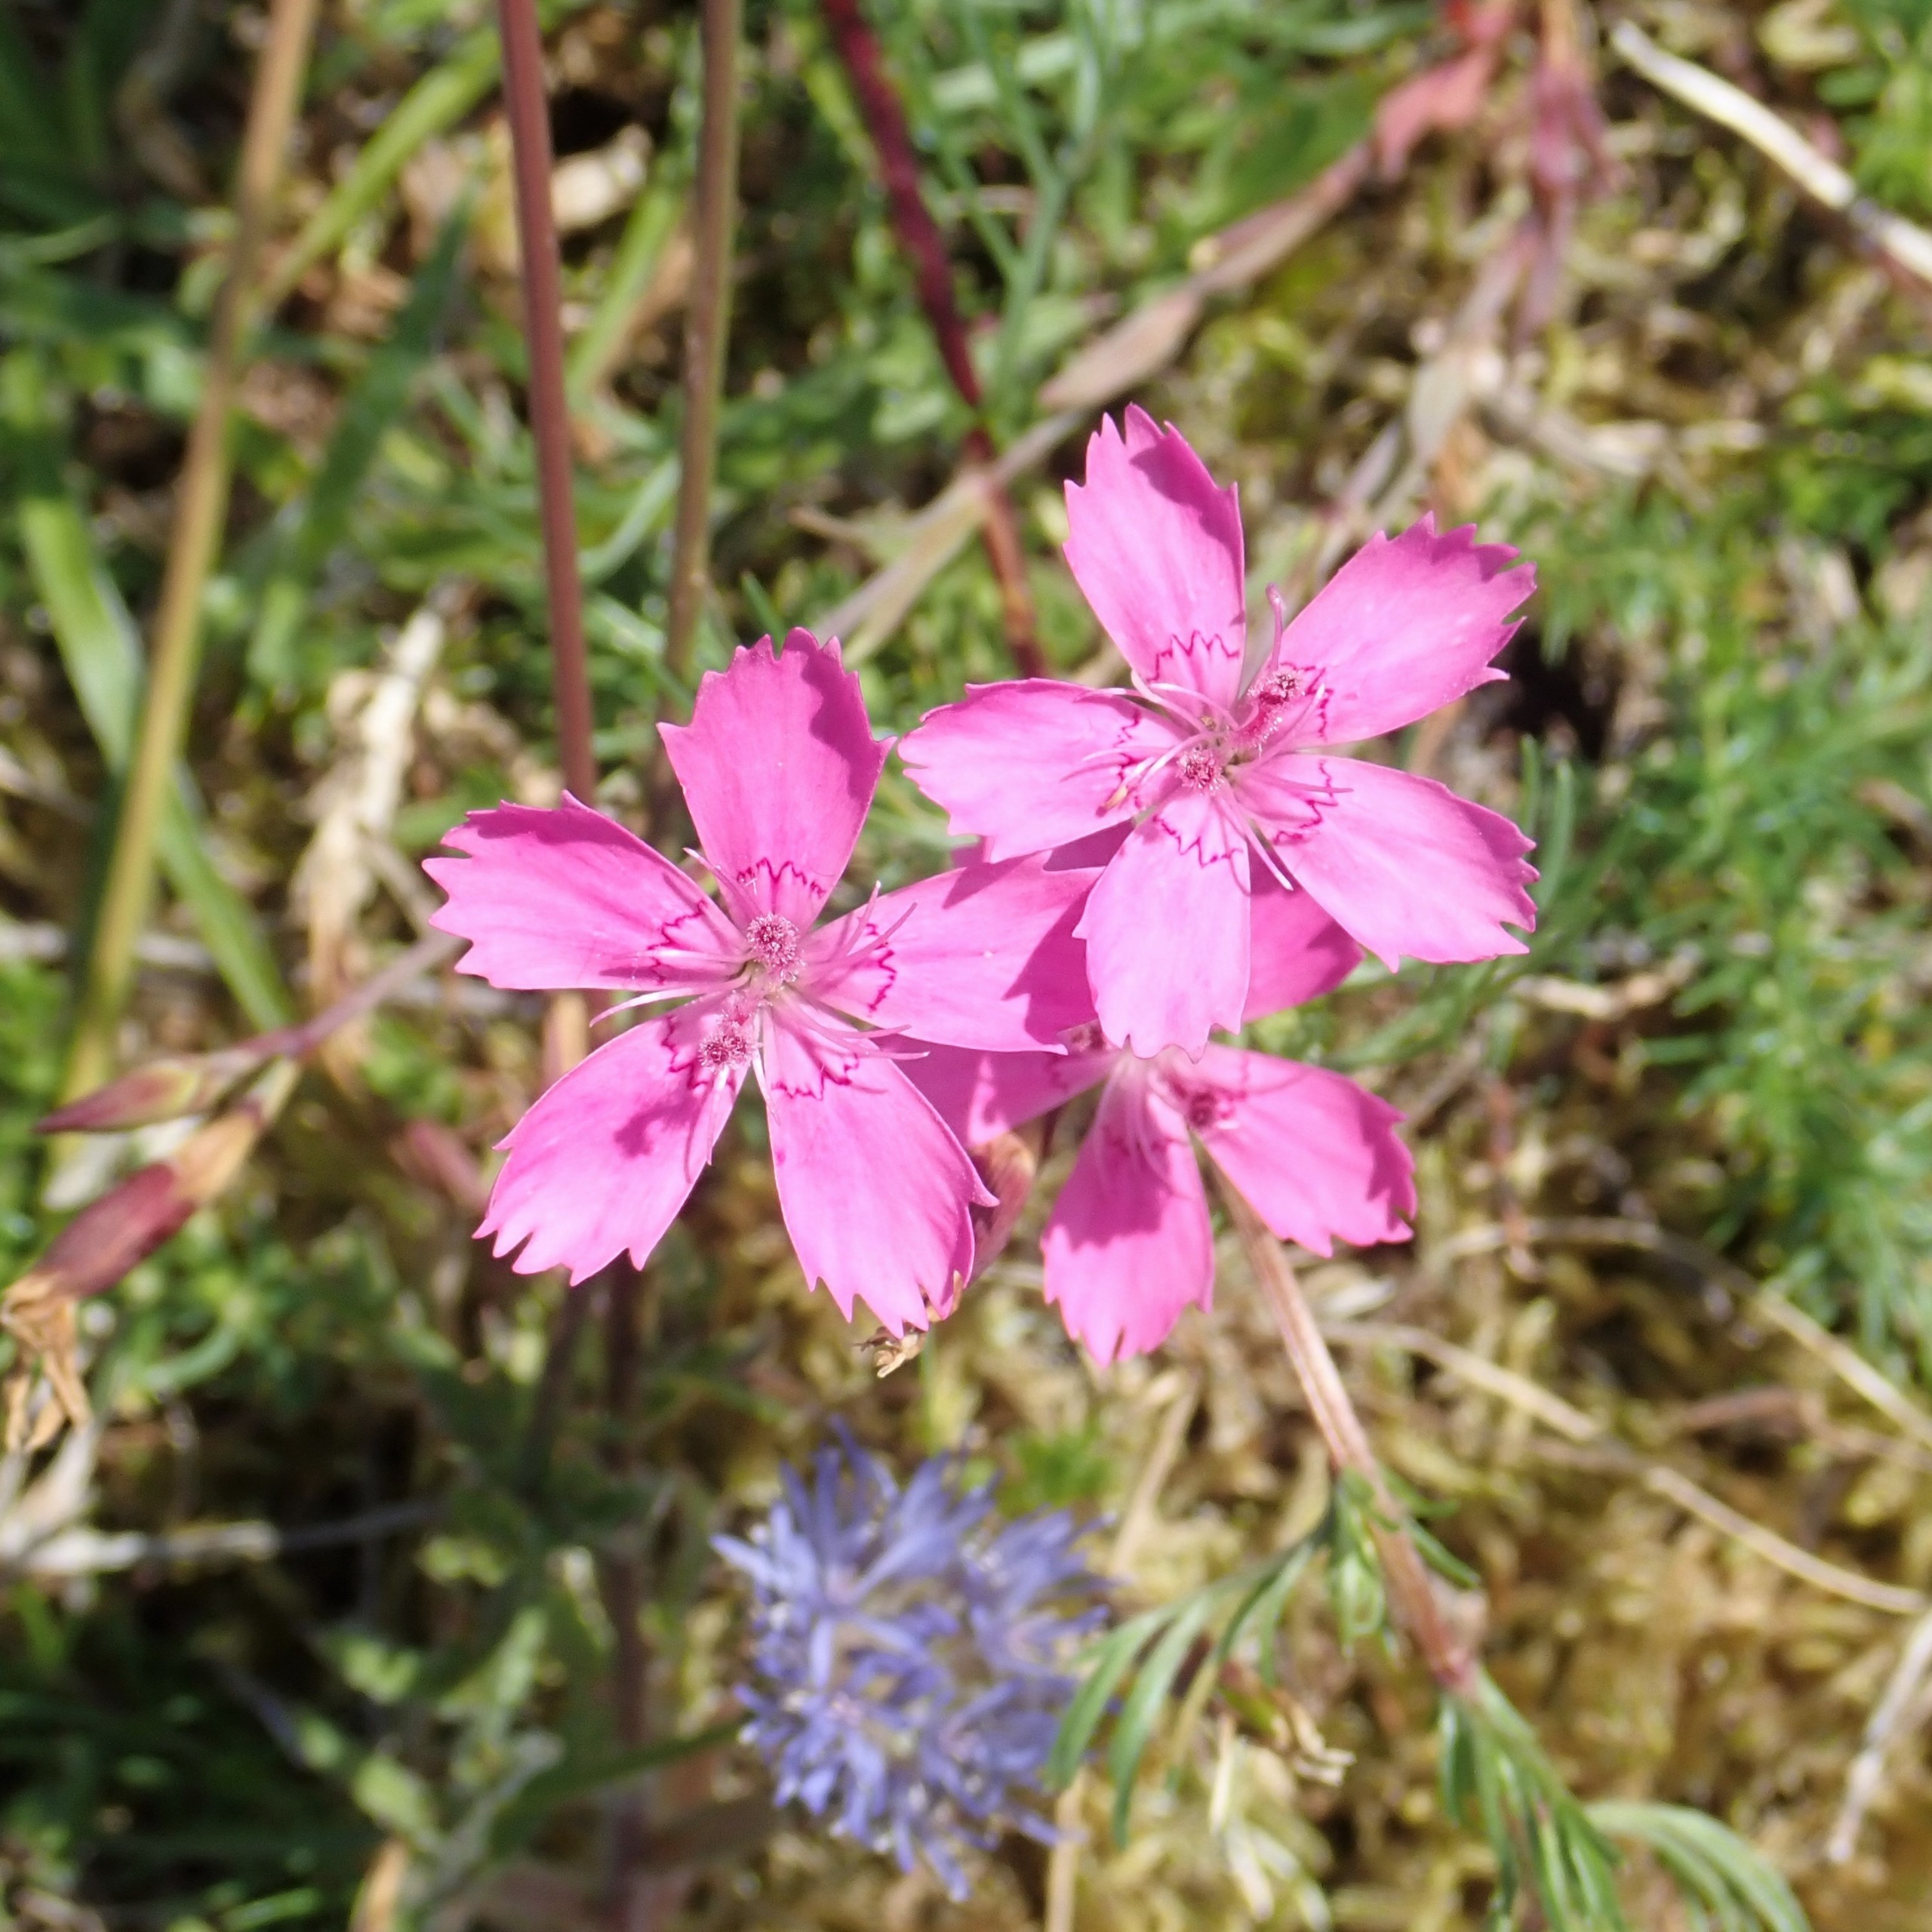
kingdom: Plantae
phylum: Tracheophyta
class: Magnoliopsida
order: Caryophyllales
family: Caryophyllaceae
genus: Dianthus
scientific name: Dianthus deltoides
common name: Bakke-nellike
